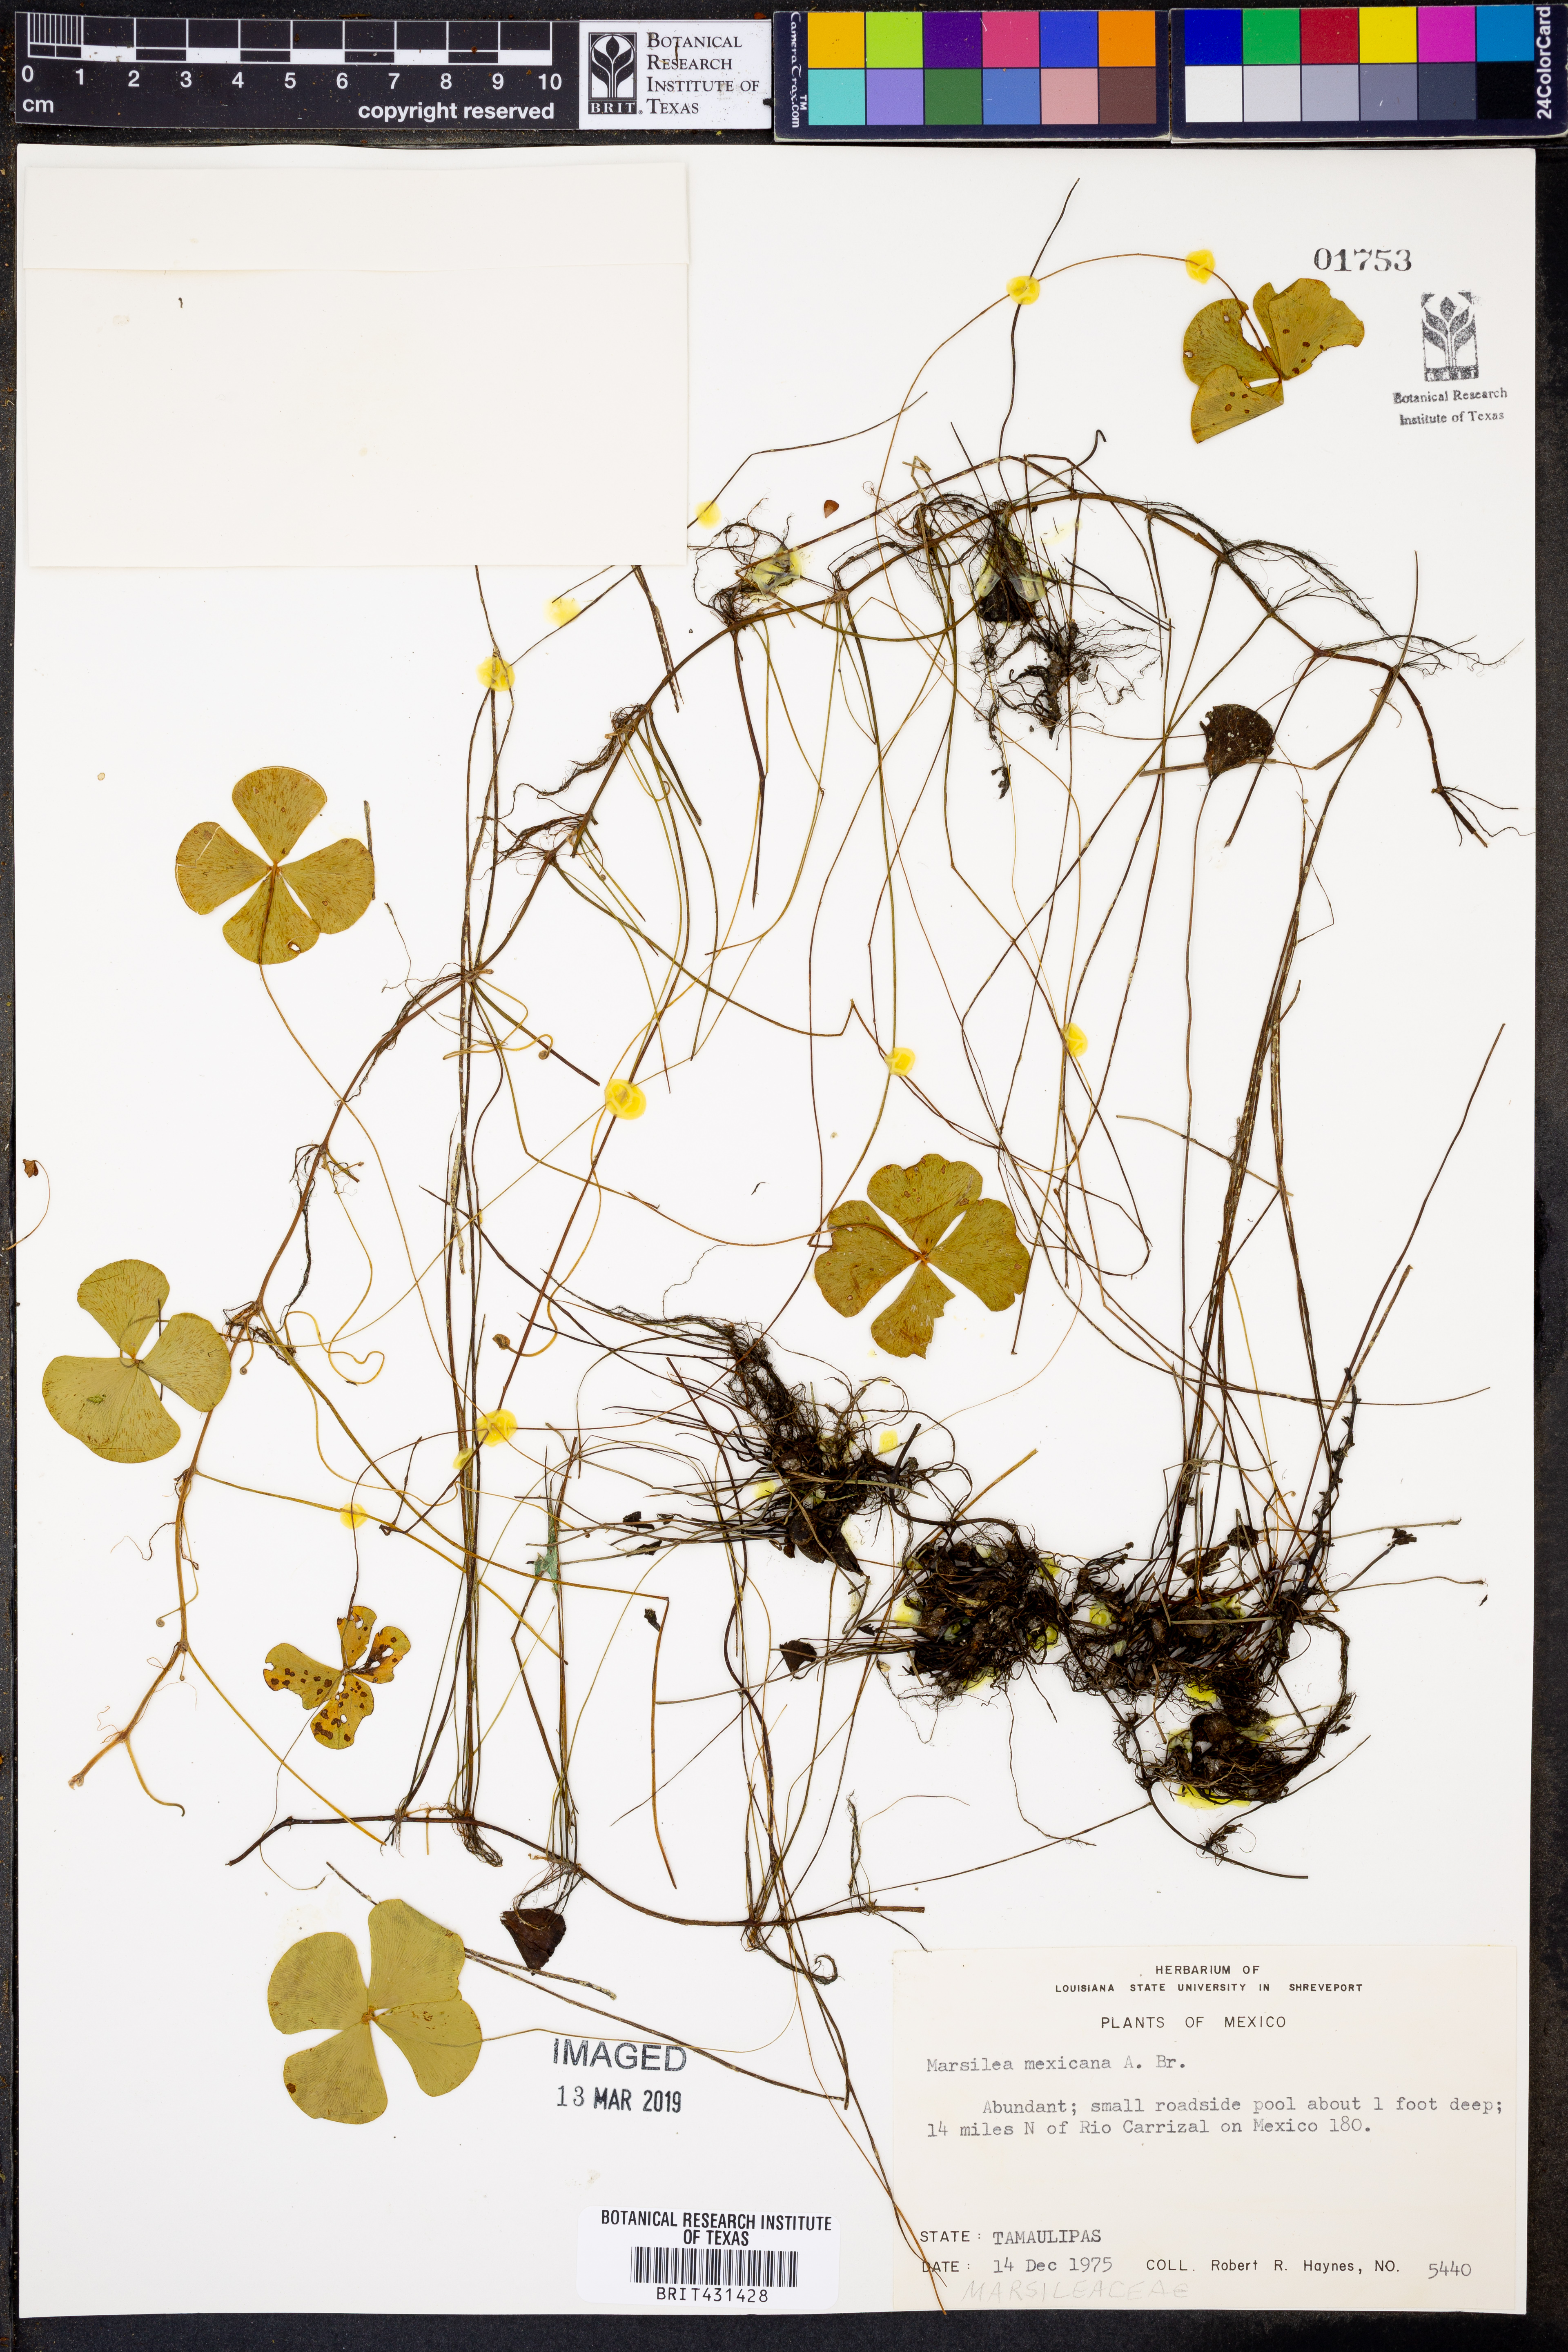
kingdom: Plantae
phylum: Tracheophyta
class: Polypodiopsida
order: Salviniales
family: Marsileaceae
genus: Marsilea
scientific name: Marsilea ancylopoda
